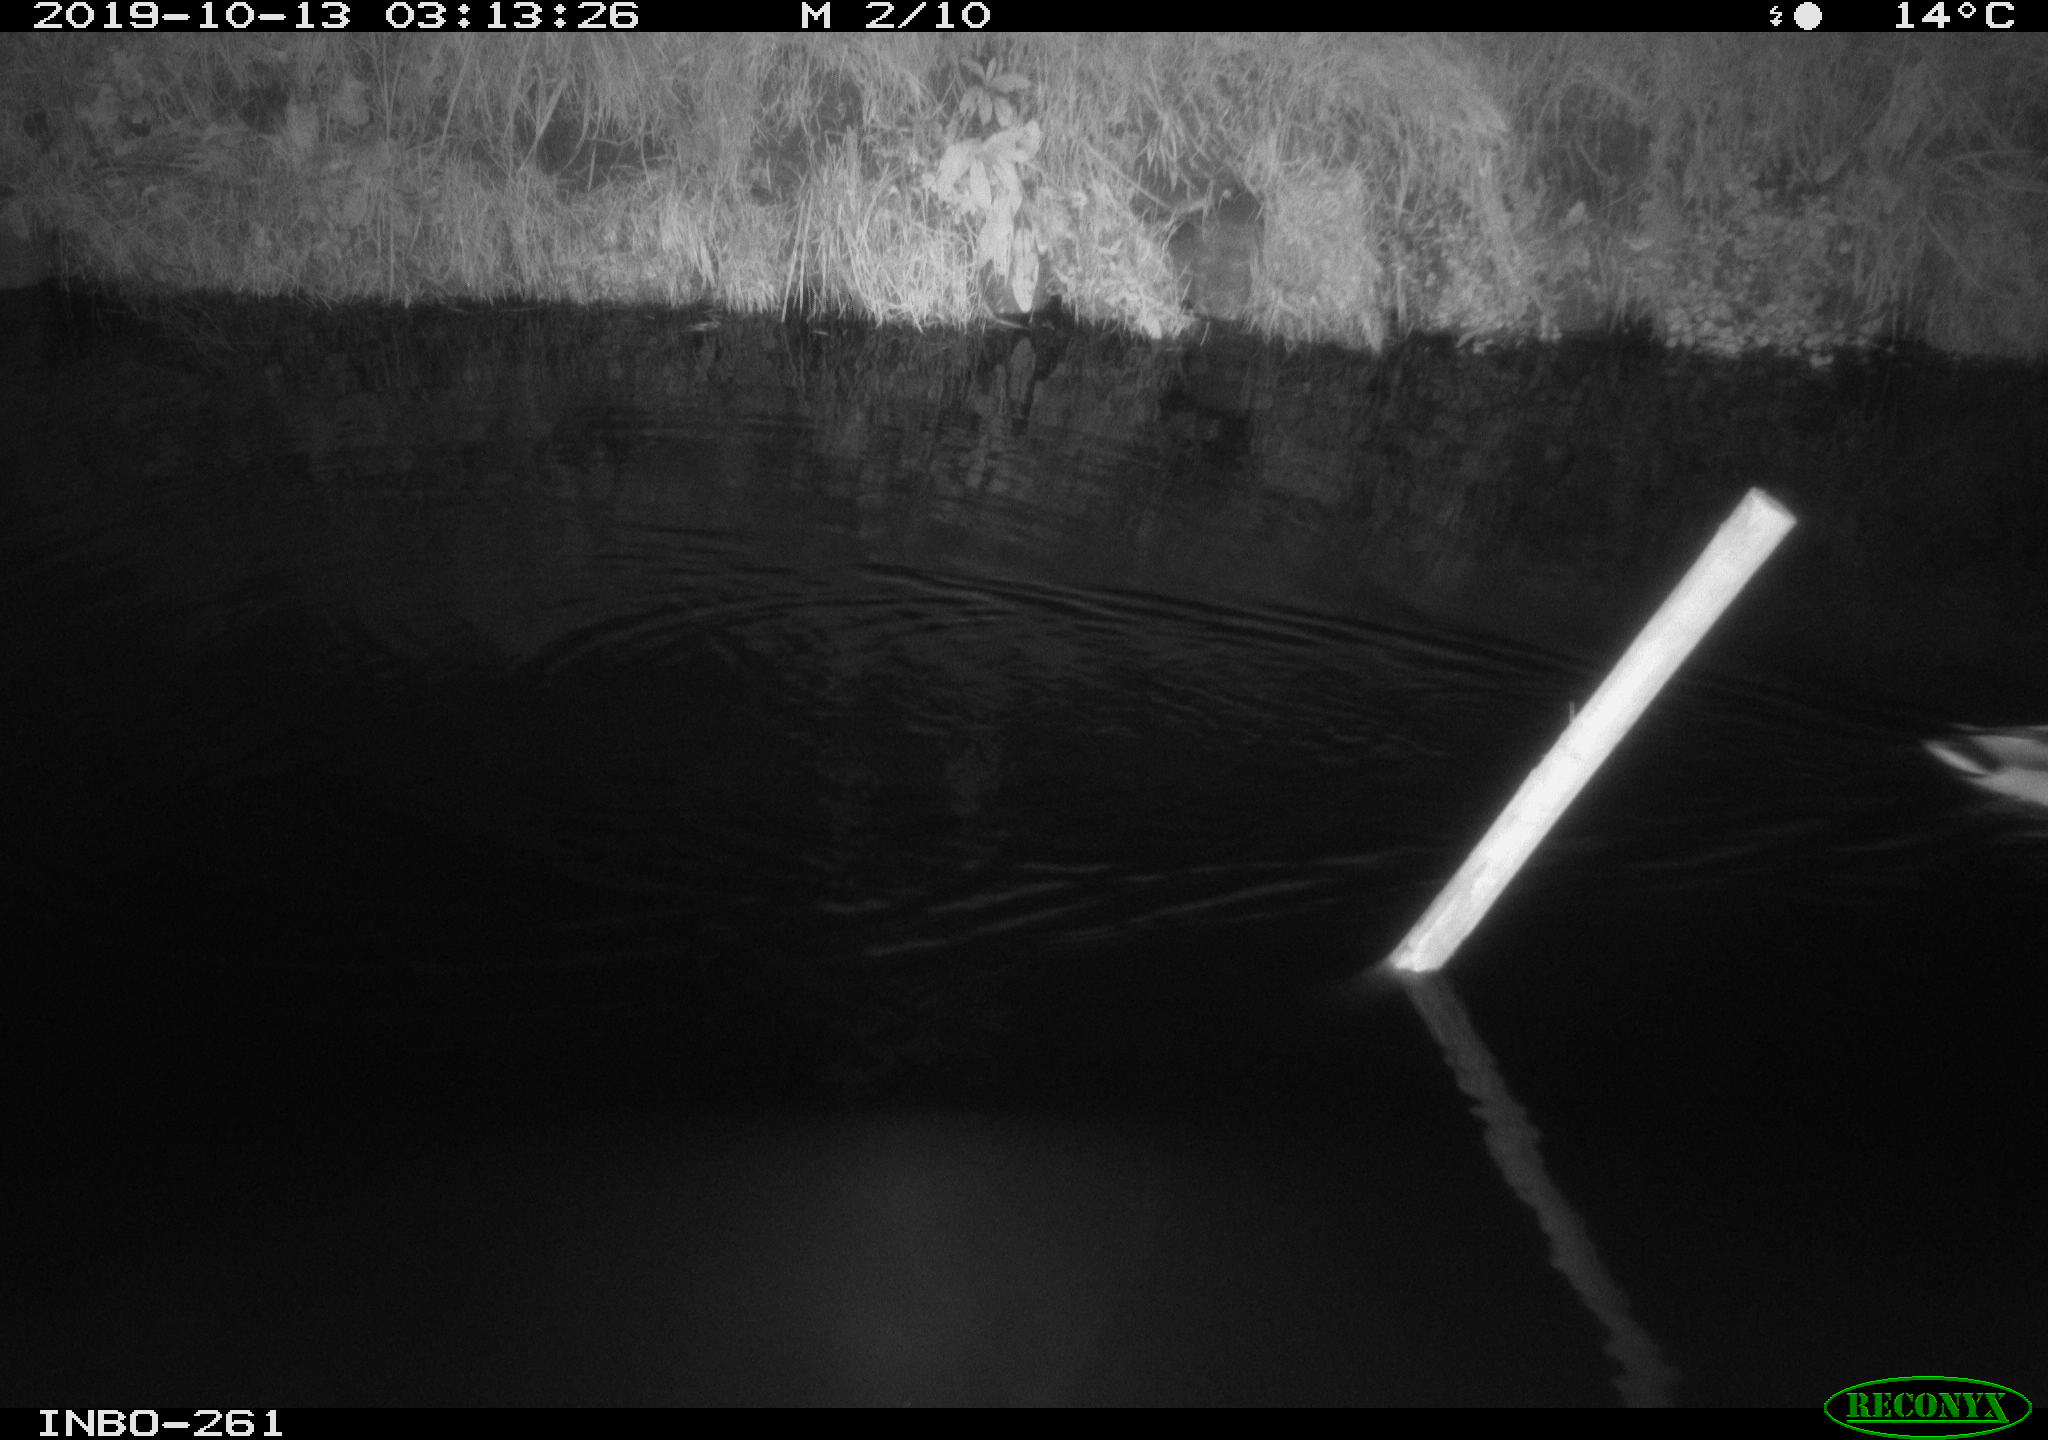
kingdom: Animalia
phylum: Chordata
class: Aves
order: Anseriformes
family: Anatidae
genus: Anas
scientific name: Anas platyrhynchos
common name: Mallard
